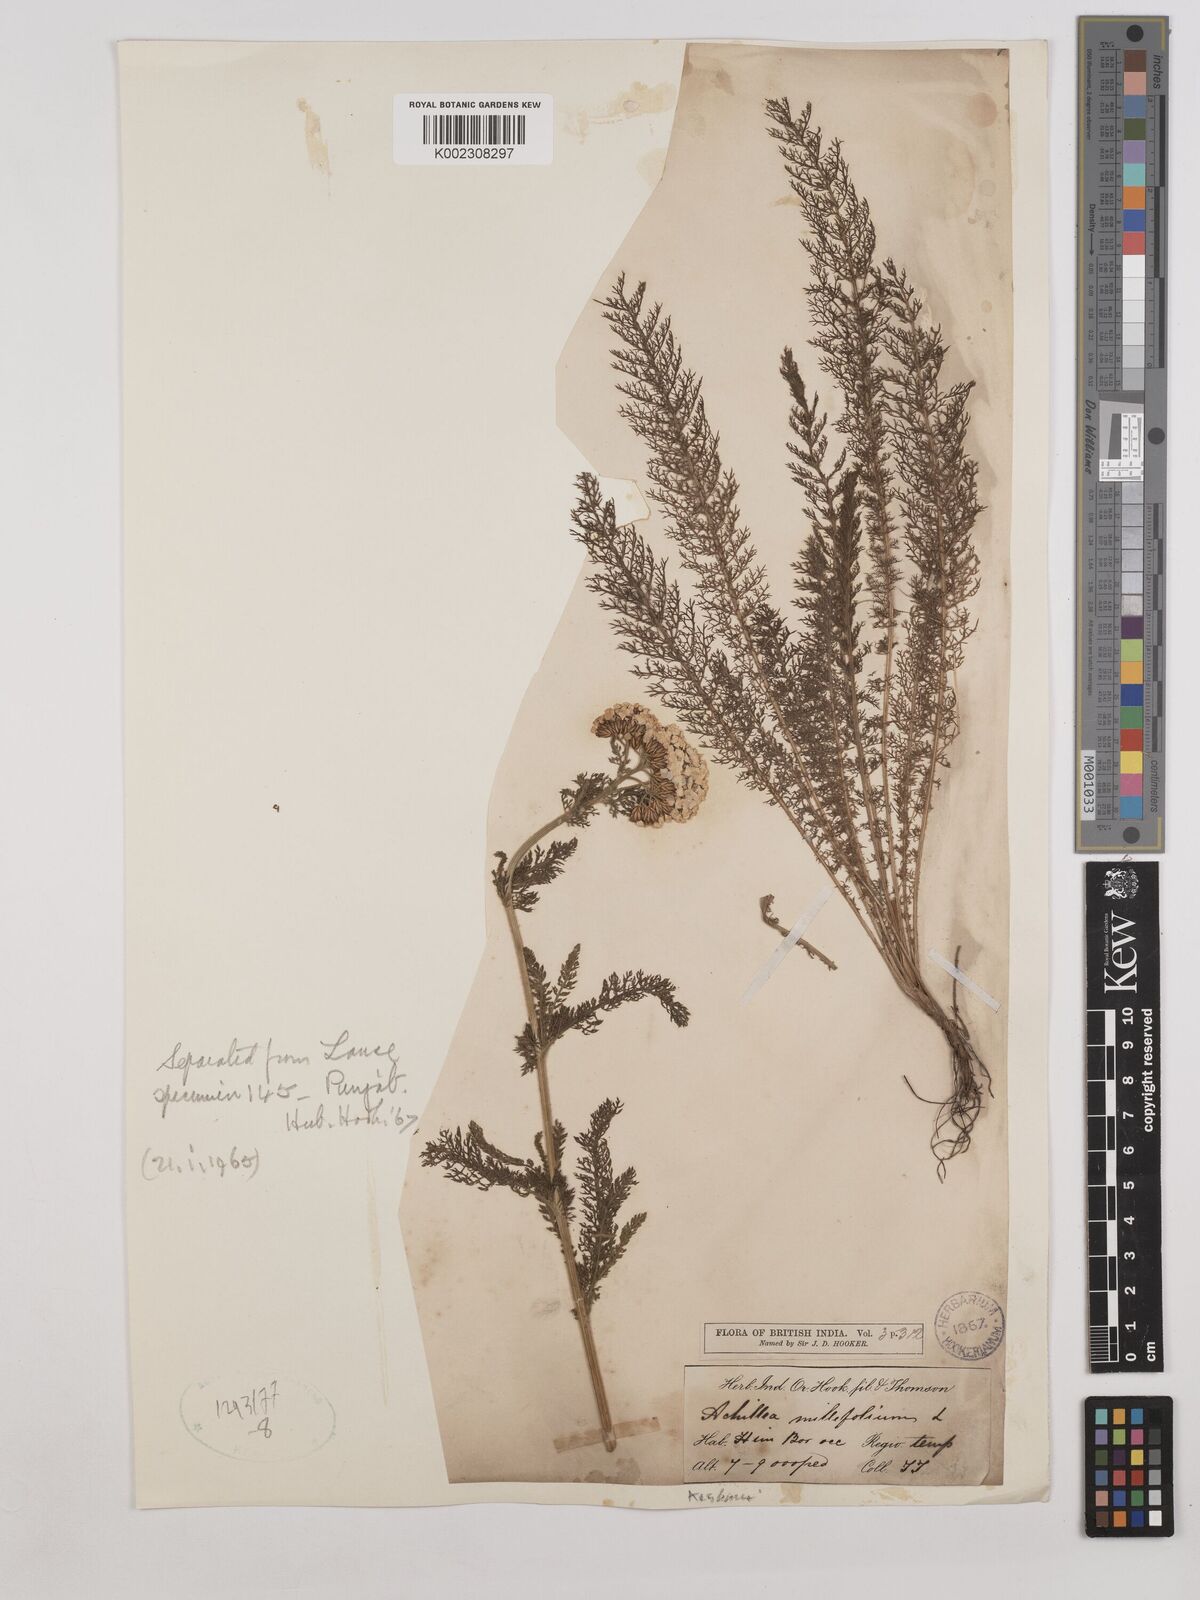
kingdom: Plantae
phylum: Tracheophyta
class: Magnoliopsida
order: Asterales
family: Asteraceae
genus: Achillea
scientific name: Achillea millefolium
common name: Yarrow
